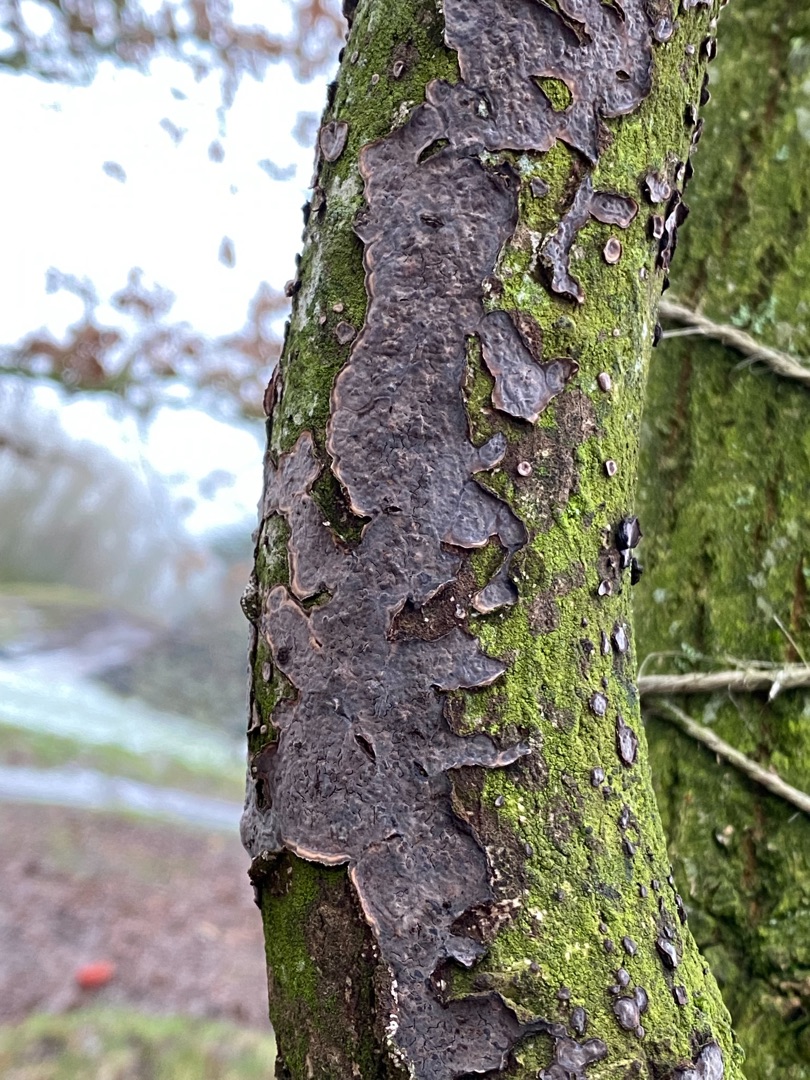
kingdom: Fungi
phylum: Basidiomycota
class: Agaricomycetes
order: Russulales
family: Peniophoraceae
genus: Peniophora
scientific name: Peniophora quercina
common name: Ege-voksskind
